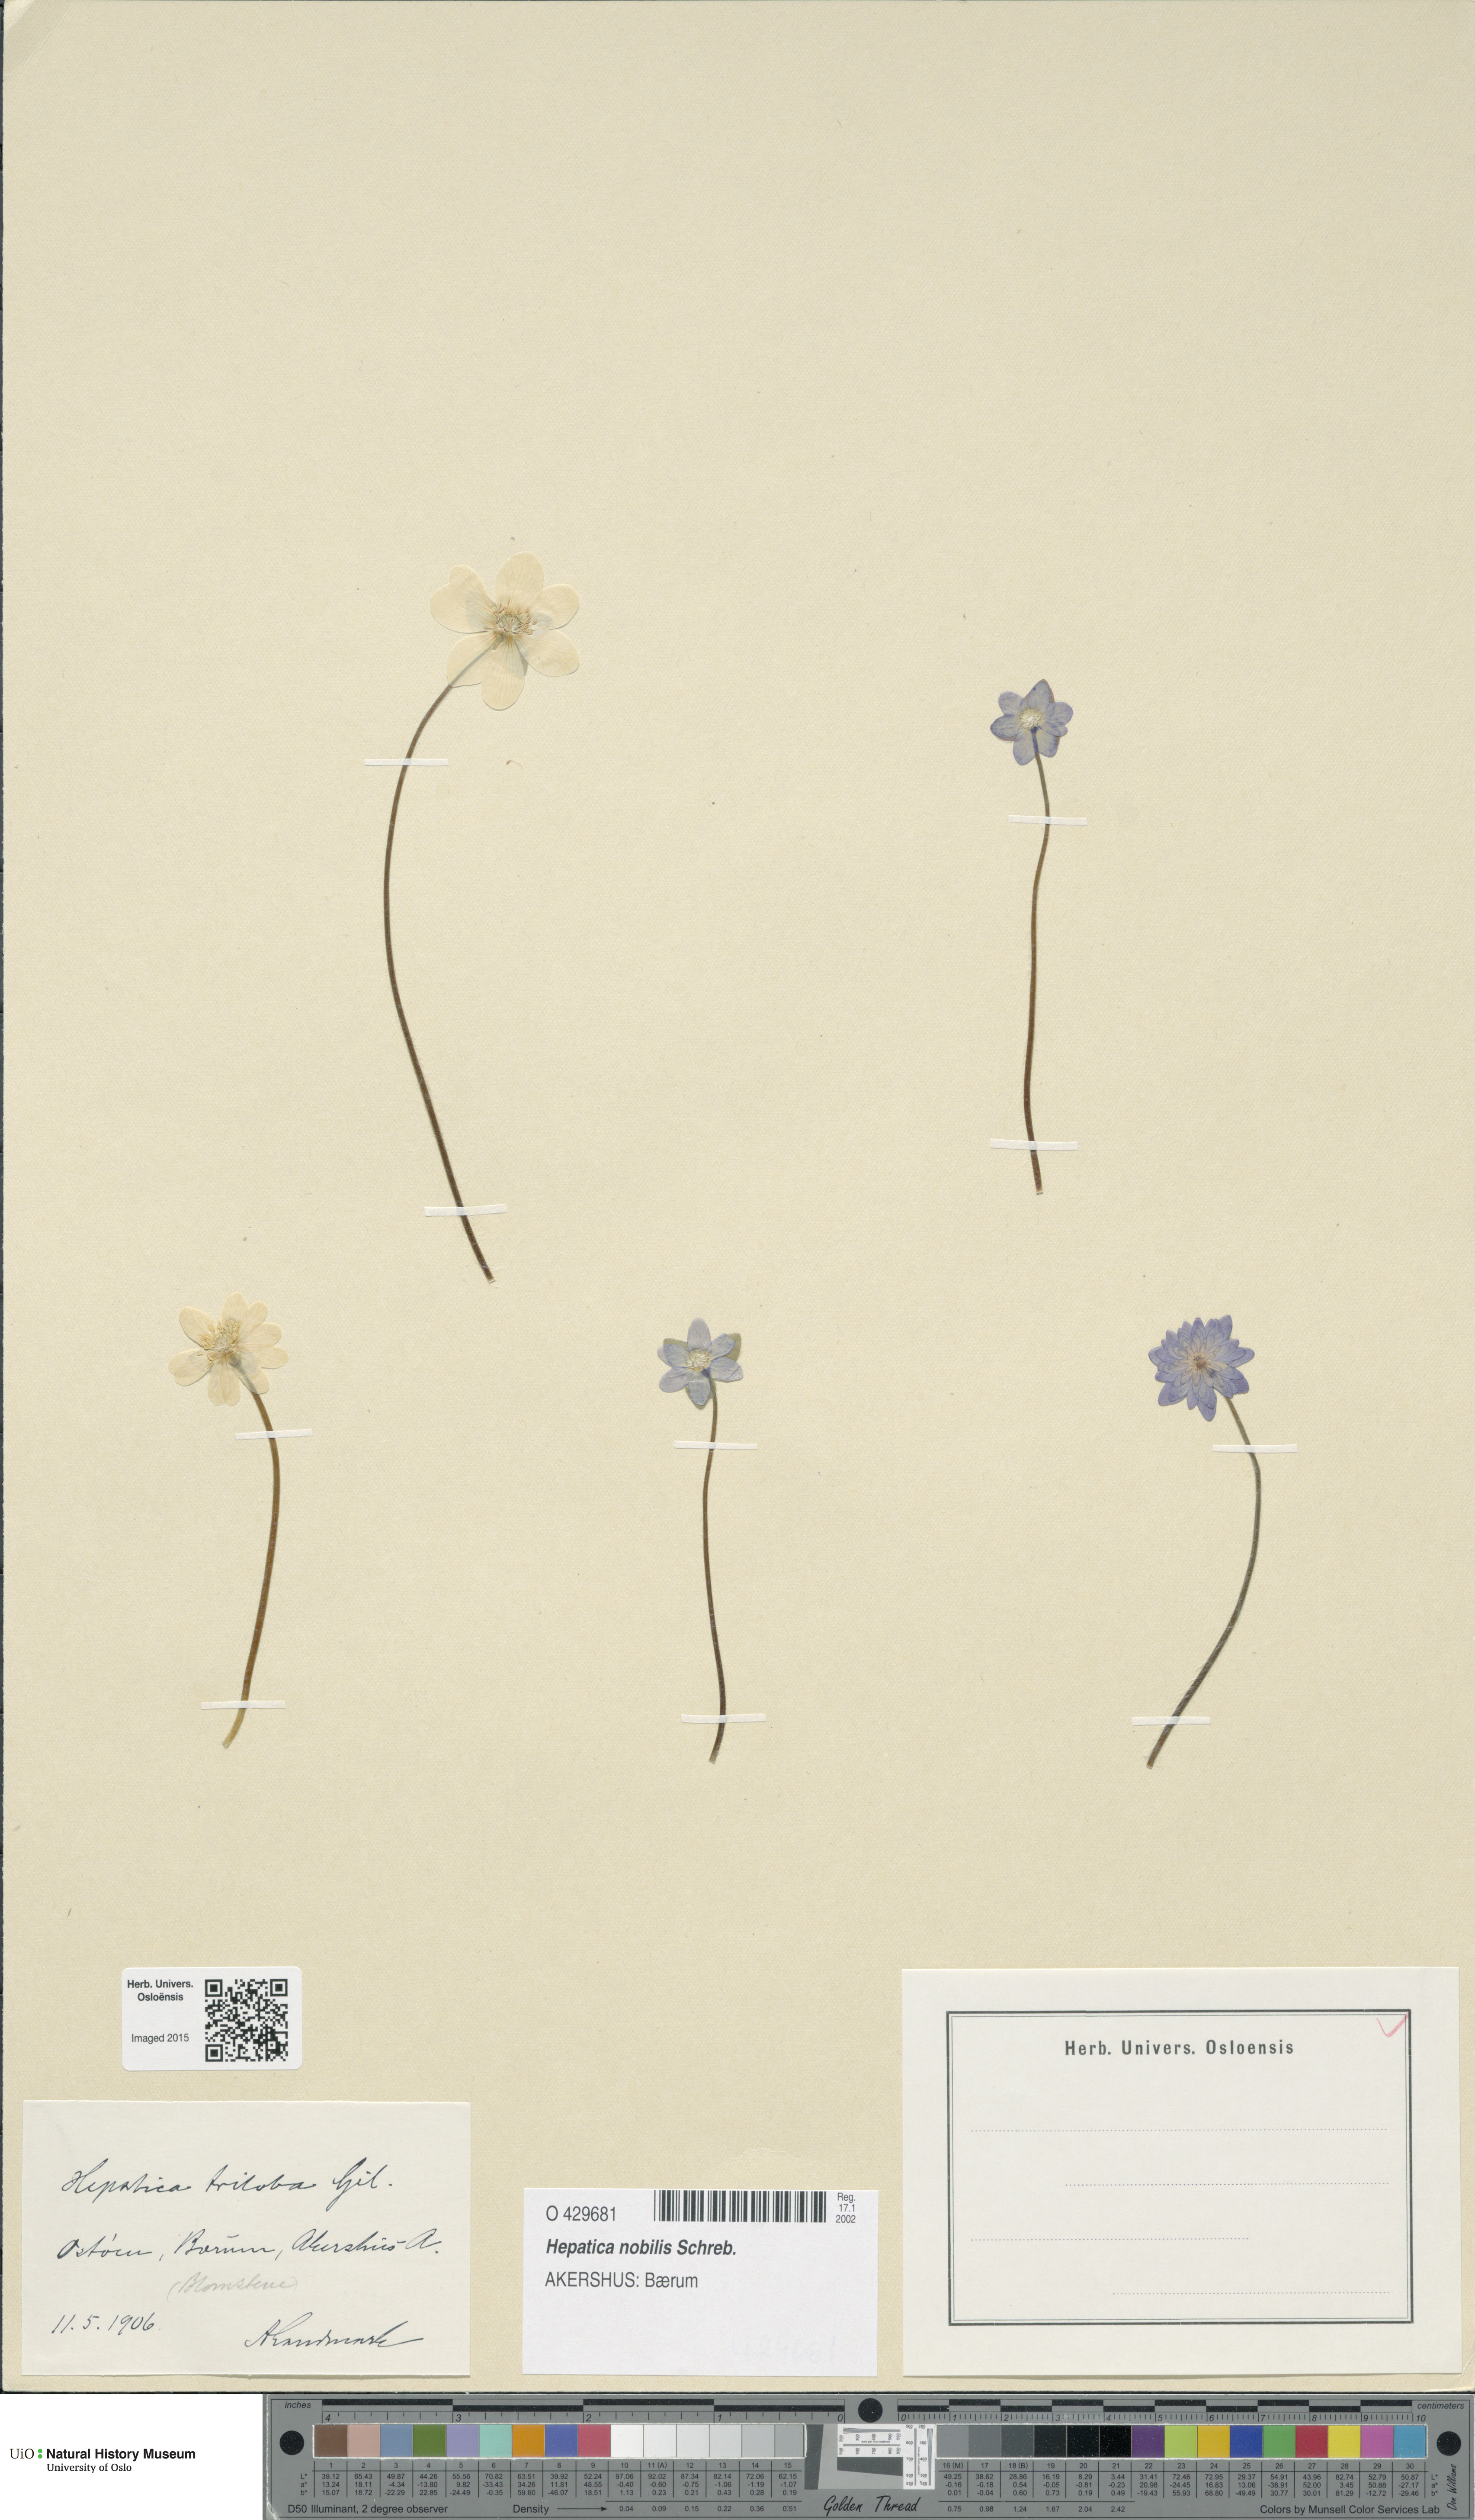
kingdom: Plantae
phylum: Tracheophyta
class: Magnoliopsida
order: Ranunculales
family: Ranunculaceae
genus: Hepatica
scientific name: Hepatica nobilis
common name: Liverleaf
